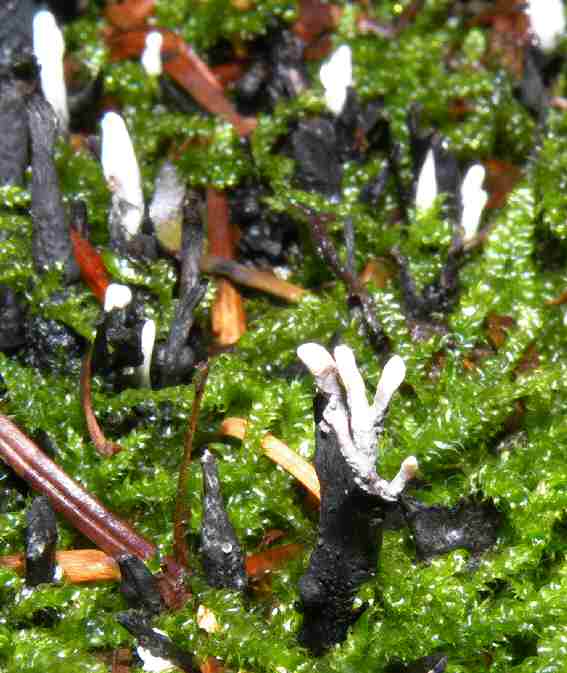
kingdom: Fungi
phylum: Ascomycota
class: Sordariomycetes
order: Xylariales
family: Xylariaceae
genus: Xylaria
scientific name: Xylaria hypoxylon
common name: grenet stødsvamp
